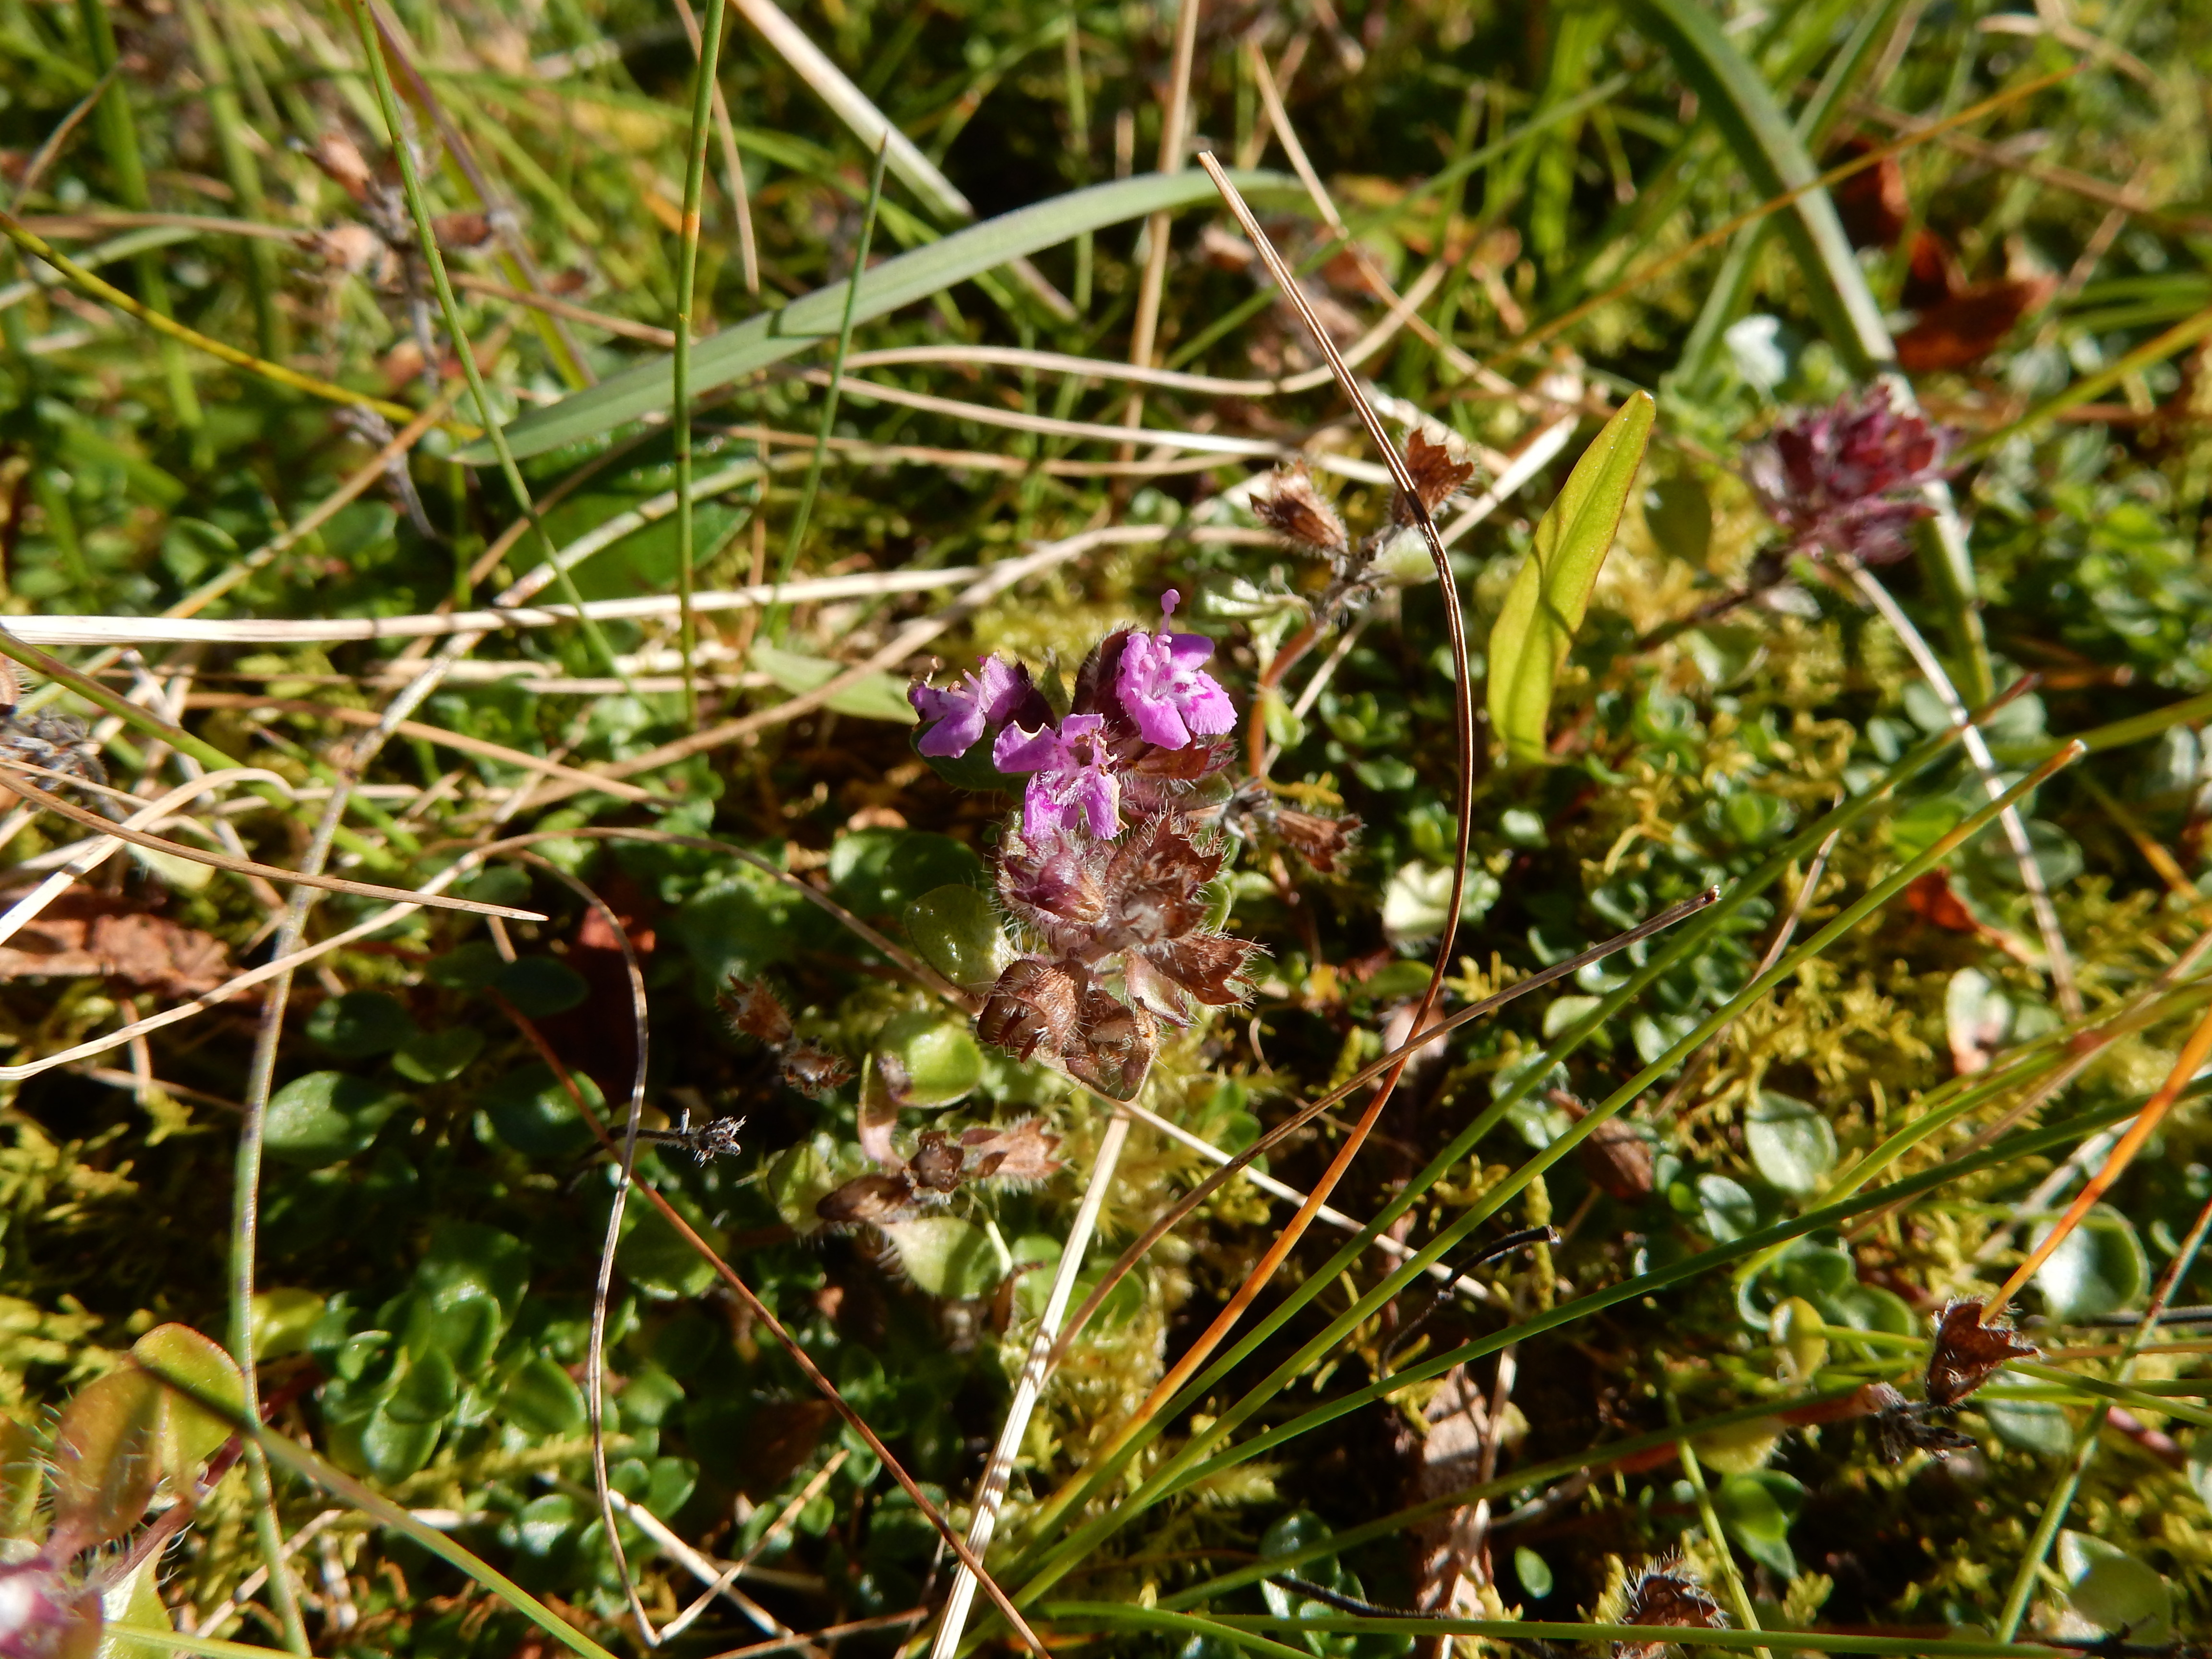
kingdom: Plantae
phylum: Tracheophyta
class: Magnoliopsida
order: Lamiales
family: Lamiaceae
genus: Thymus
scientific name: Thymus praecox
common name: Wild thyme
